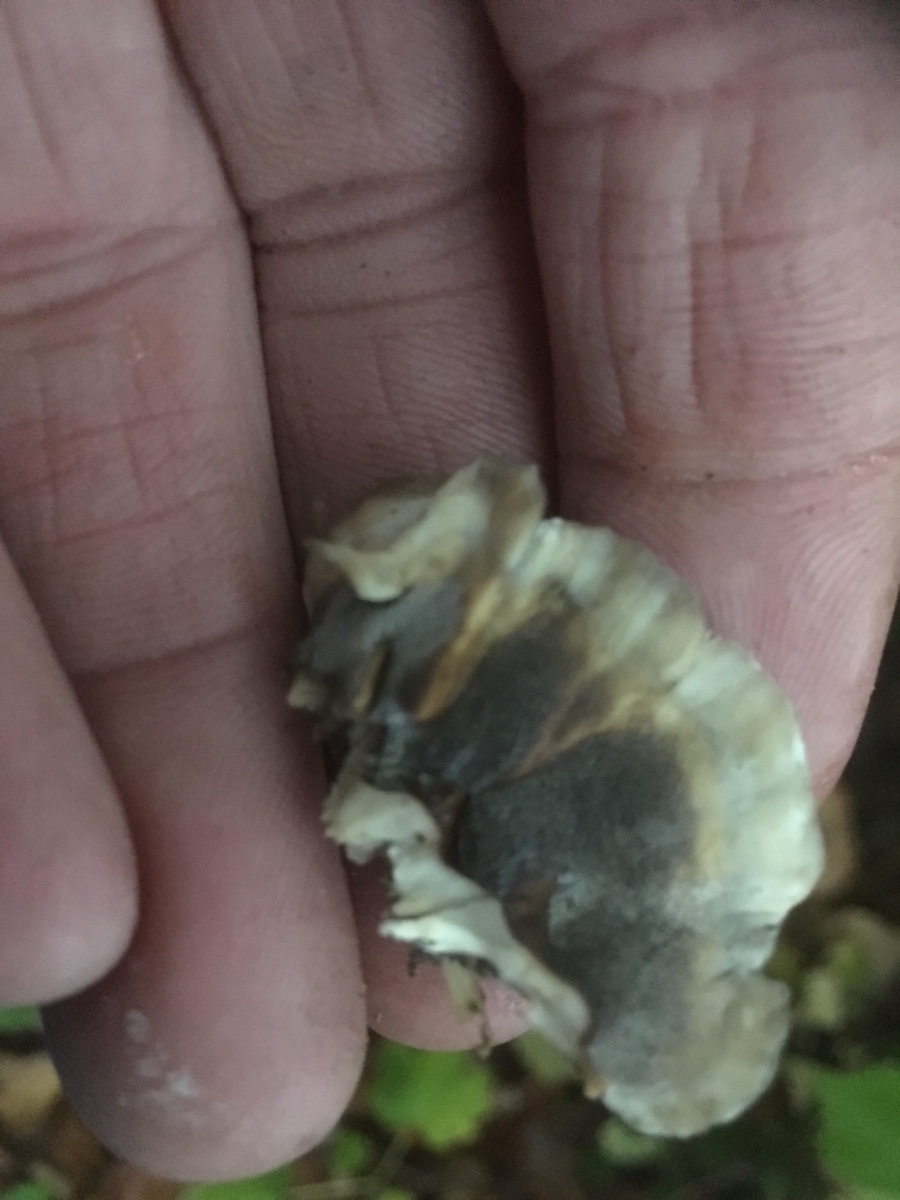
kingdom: Fungi
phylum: Basidiomycota
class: Agaricomycetes
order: Polyporales
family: Phanerochaetaceae
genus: Bjerkandera
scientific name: Bjerkandera adusta
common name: sveden sodporesvamp
